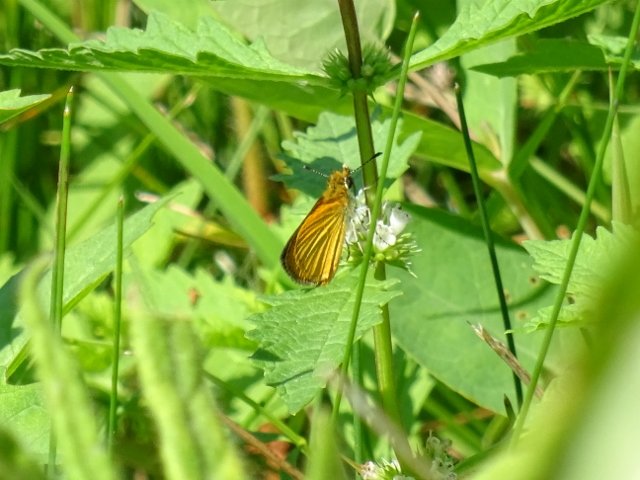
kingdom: Animalia
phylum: Arthropoda
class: Insecta
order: Lepidoptera
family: Hesperiidae
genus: Ancyloxypha
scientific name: Ancyloxypha numitor
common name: Least Skipper
